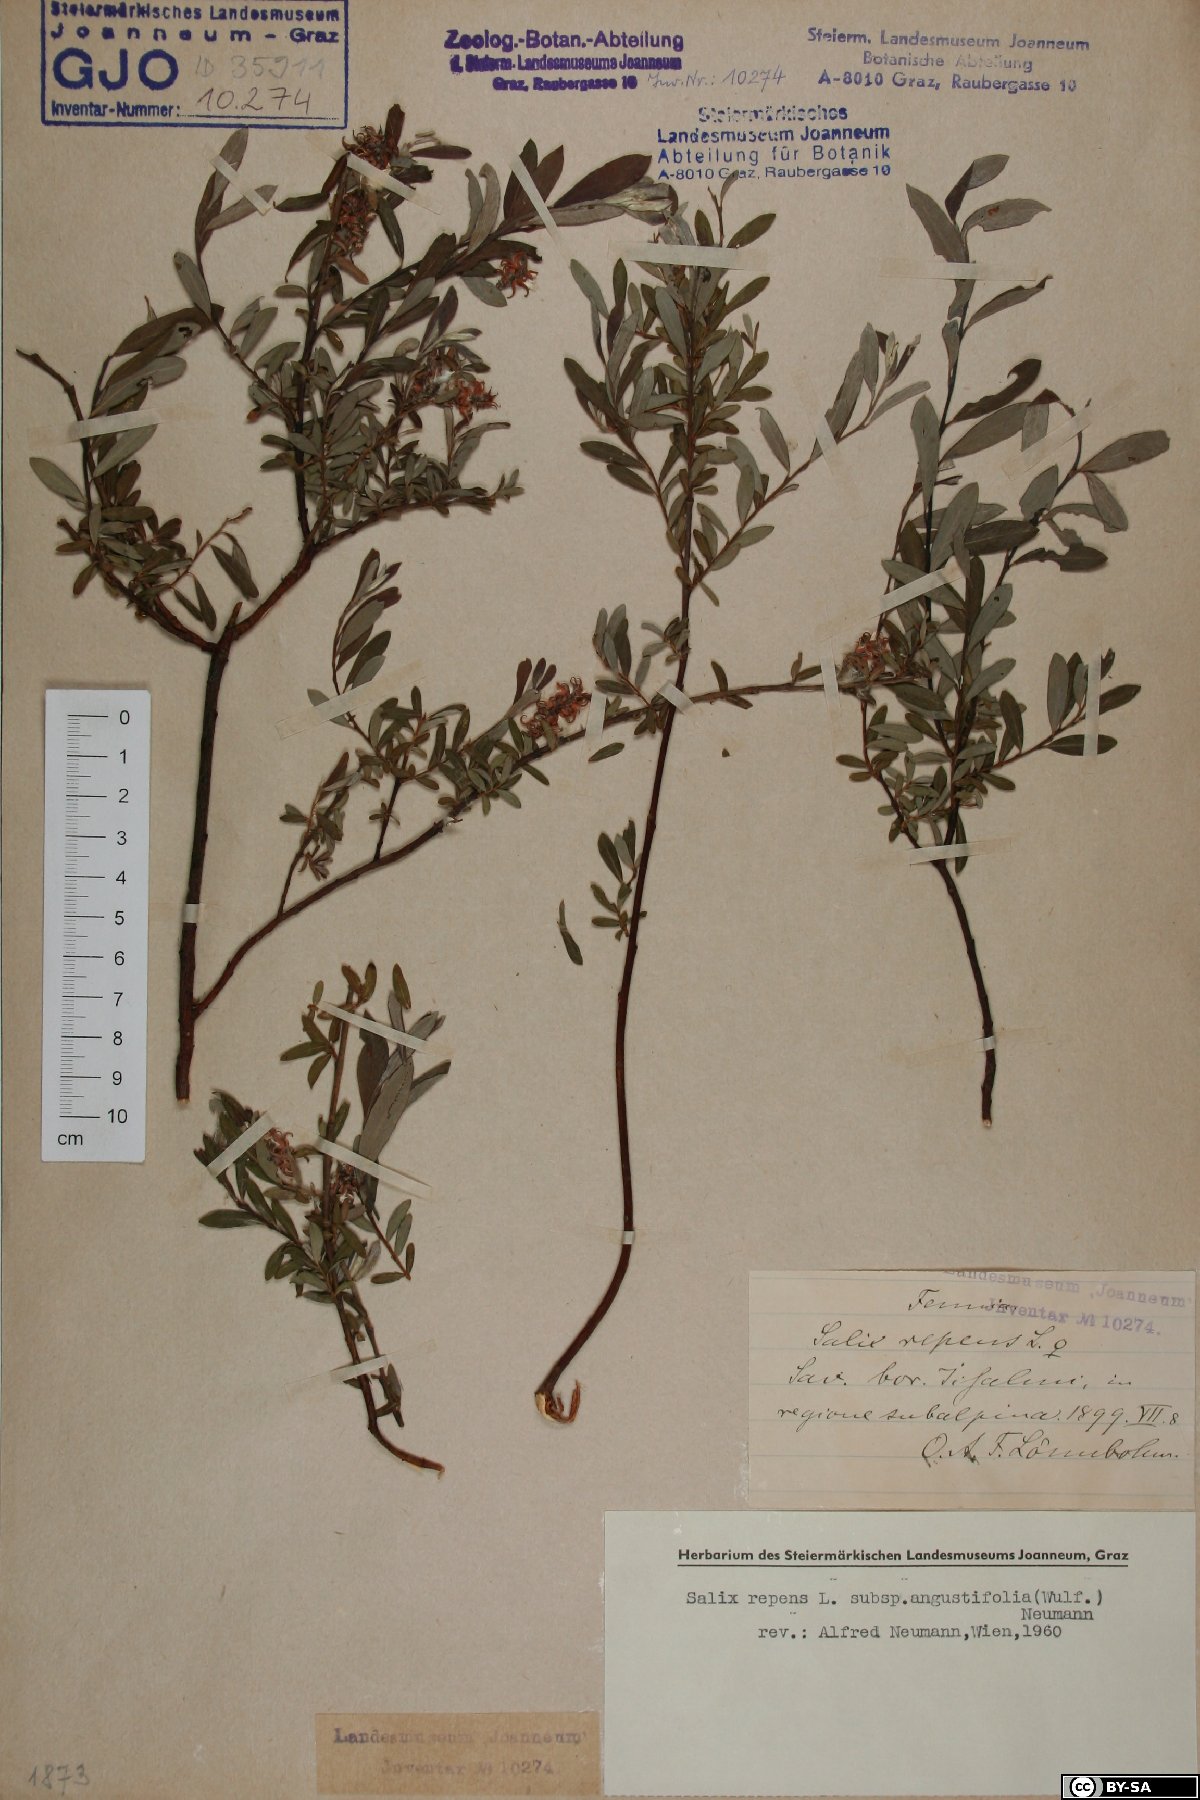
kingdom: Plantae
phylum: Tracheophyta
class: Magnoliopsida
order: Malpighiales
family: Salicaceae
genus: Salix
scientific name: Salix rosmarinifolia
